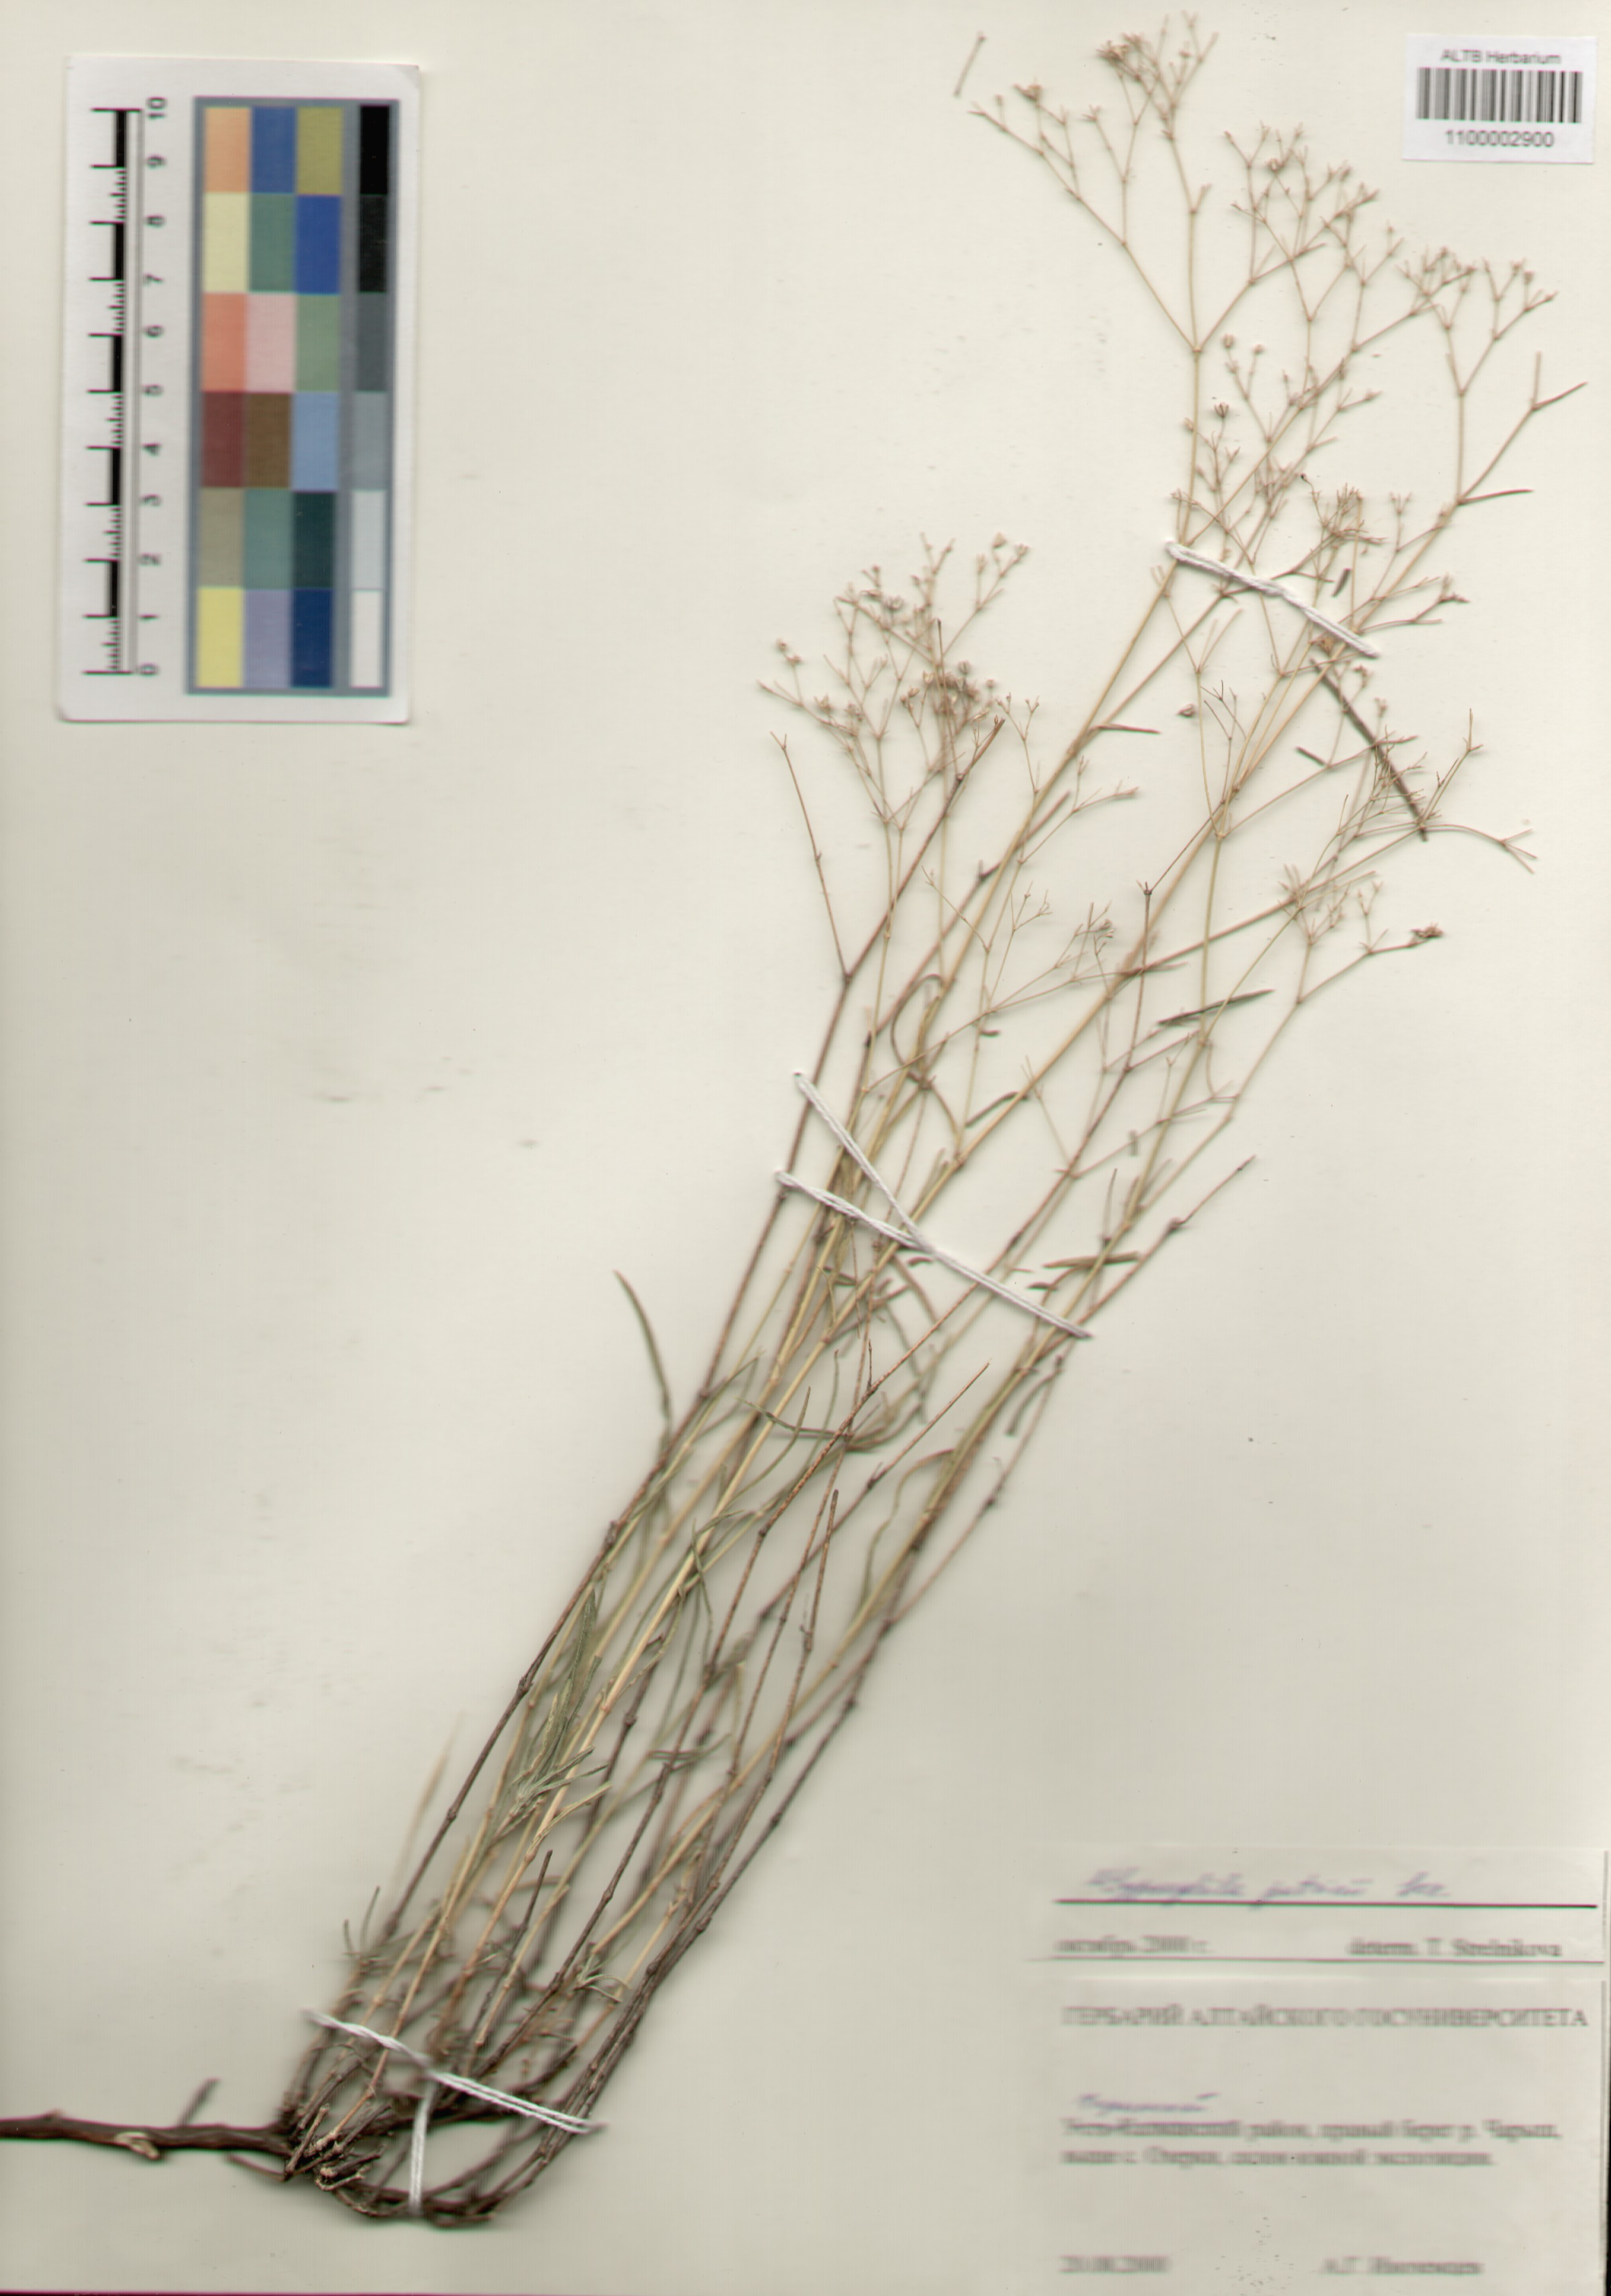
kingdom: Plantae
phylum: Tracheophyta
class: Magnoliopsida
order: Caryophyllales
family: Caryophyllaceae
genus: Gypsophila
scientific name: Gypsophila patrinii
